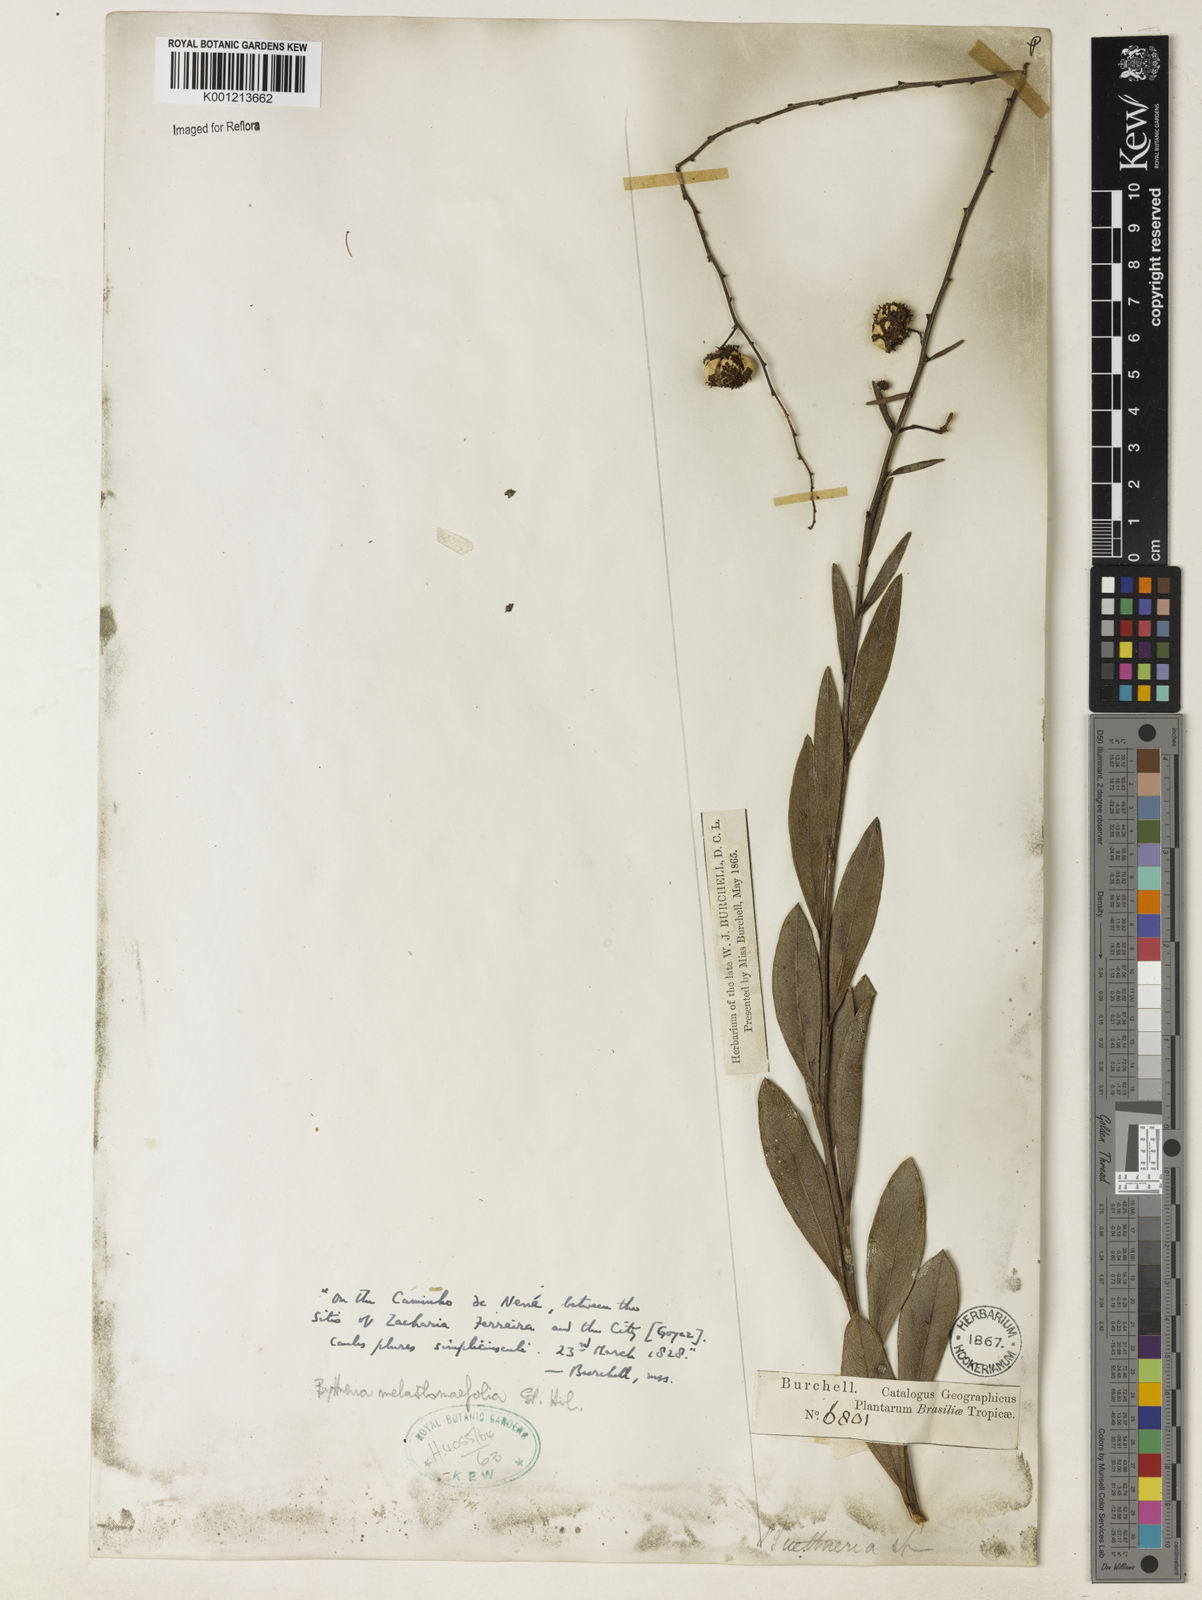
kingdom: Plantae
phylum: Tracheophyta
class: Magnoliopsida
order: Malvales
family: Malvaceae
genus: Byttneria
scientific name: Byttneria melastomifolia
